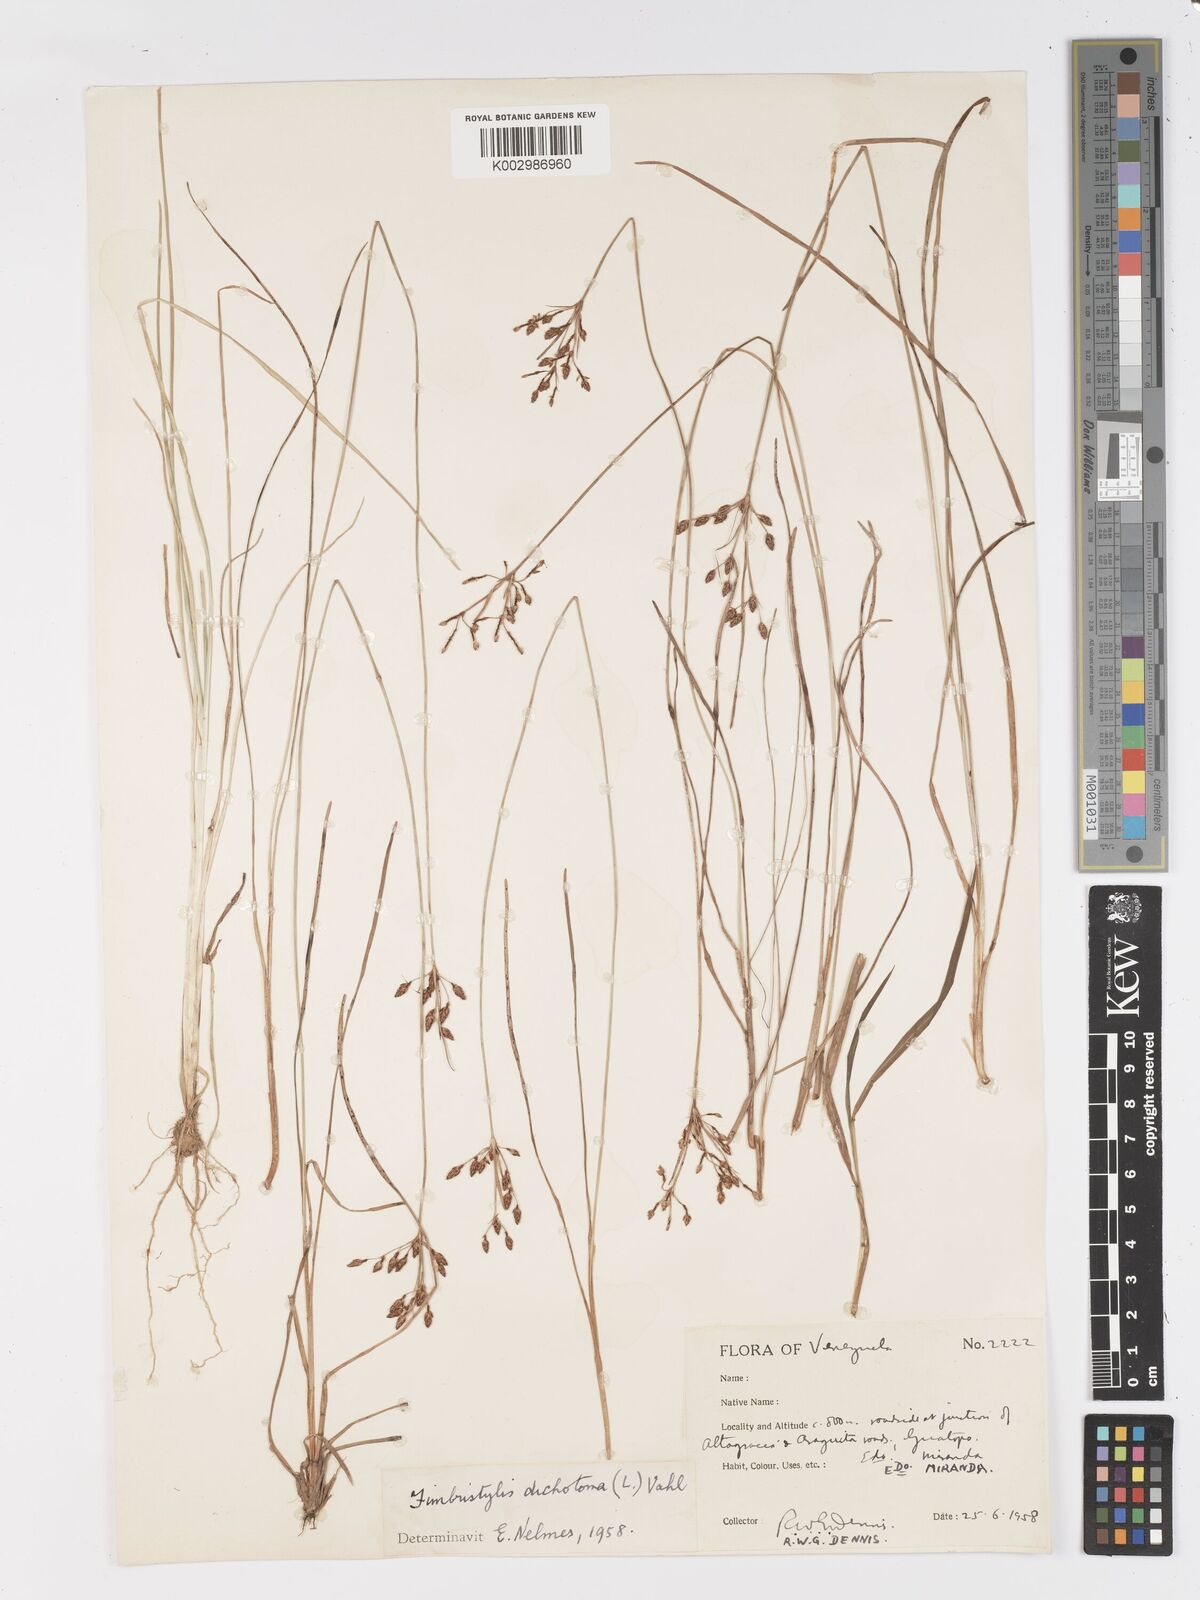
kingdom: Plantae
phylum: Tracheophyta
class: Liliopsida
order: Poales
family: Cyperaceae
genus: Fimbristylis
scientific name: Fimbristylis dichotoma
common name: Forked fimbry
